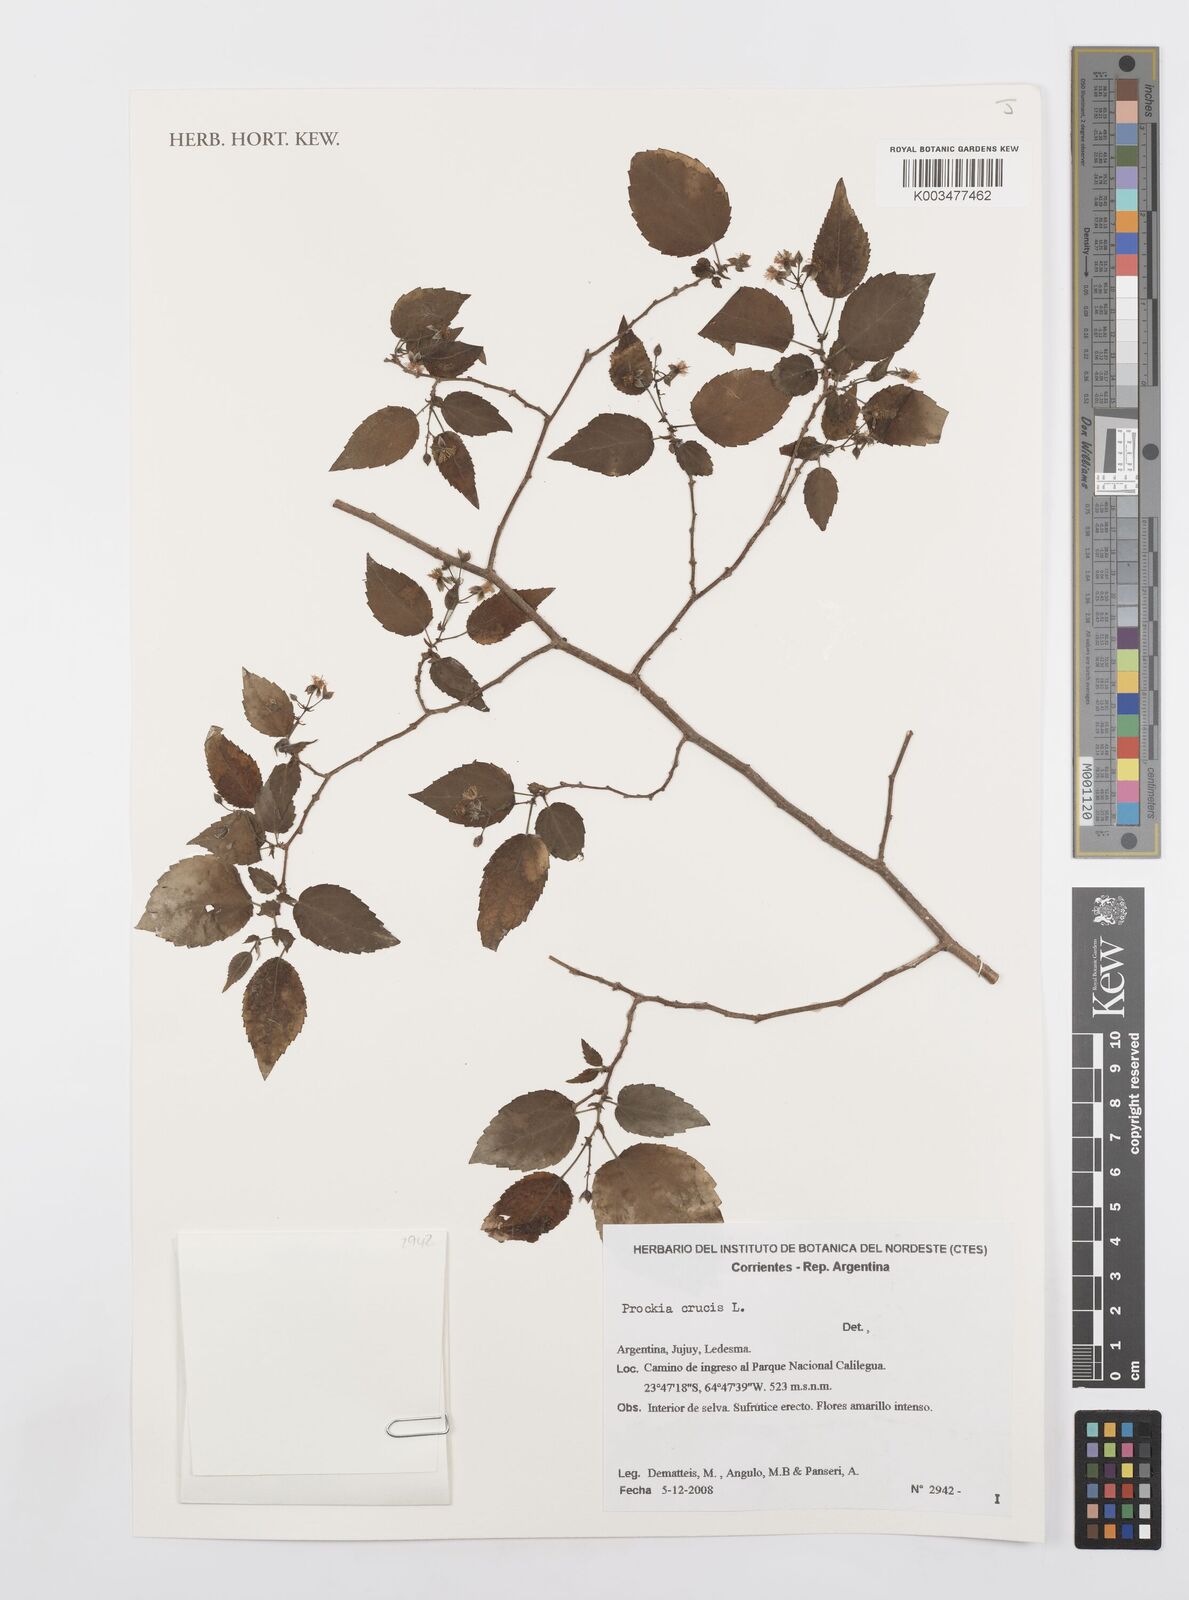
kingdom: Plantae
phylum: Tracheophyta
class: Magnoliopsida
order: Malpighiales
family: Salicaceae
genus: Prockia
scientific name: Prockia crucis
